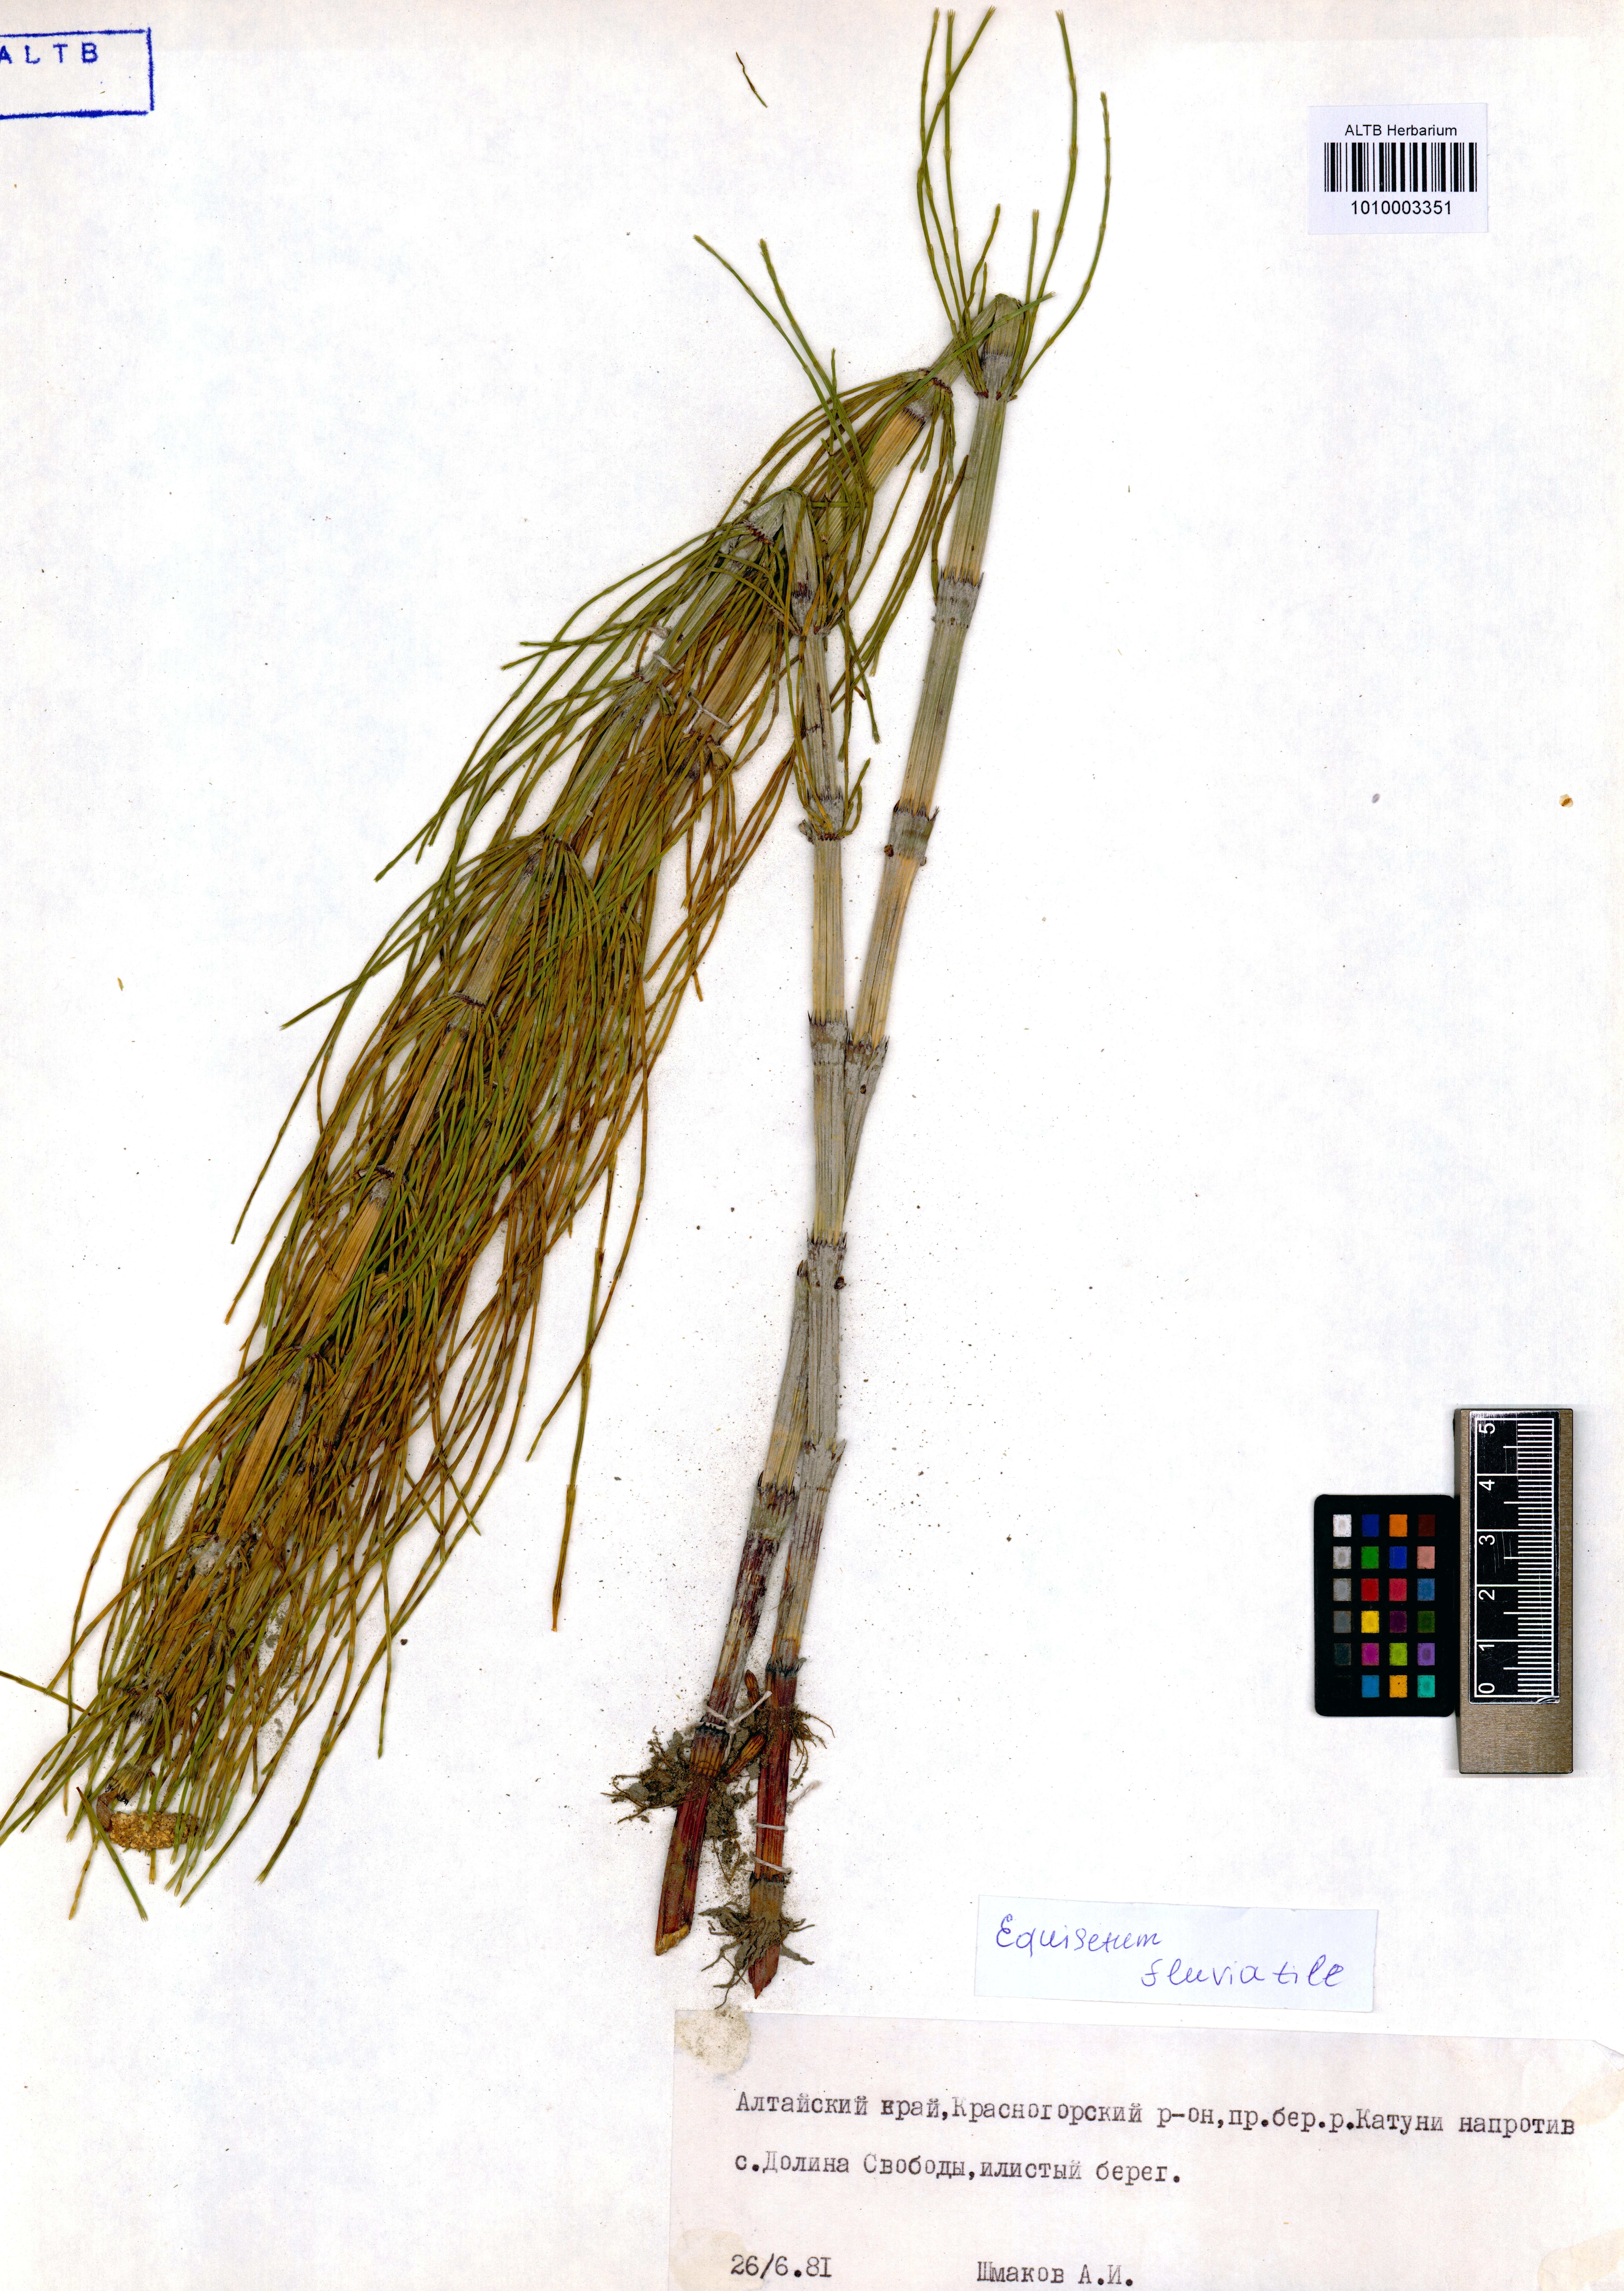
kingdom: Plantae
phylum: Tracheophyta
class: Polypodiopsida
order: Equisetales
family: Equisetaceae
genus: Equisetum
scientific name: Equisetum fluviatile
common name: Water horsetail
